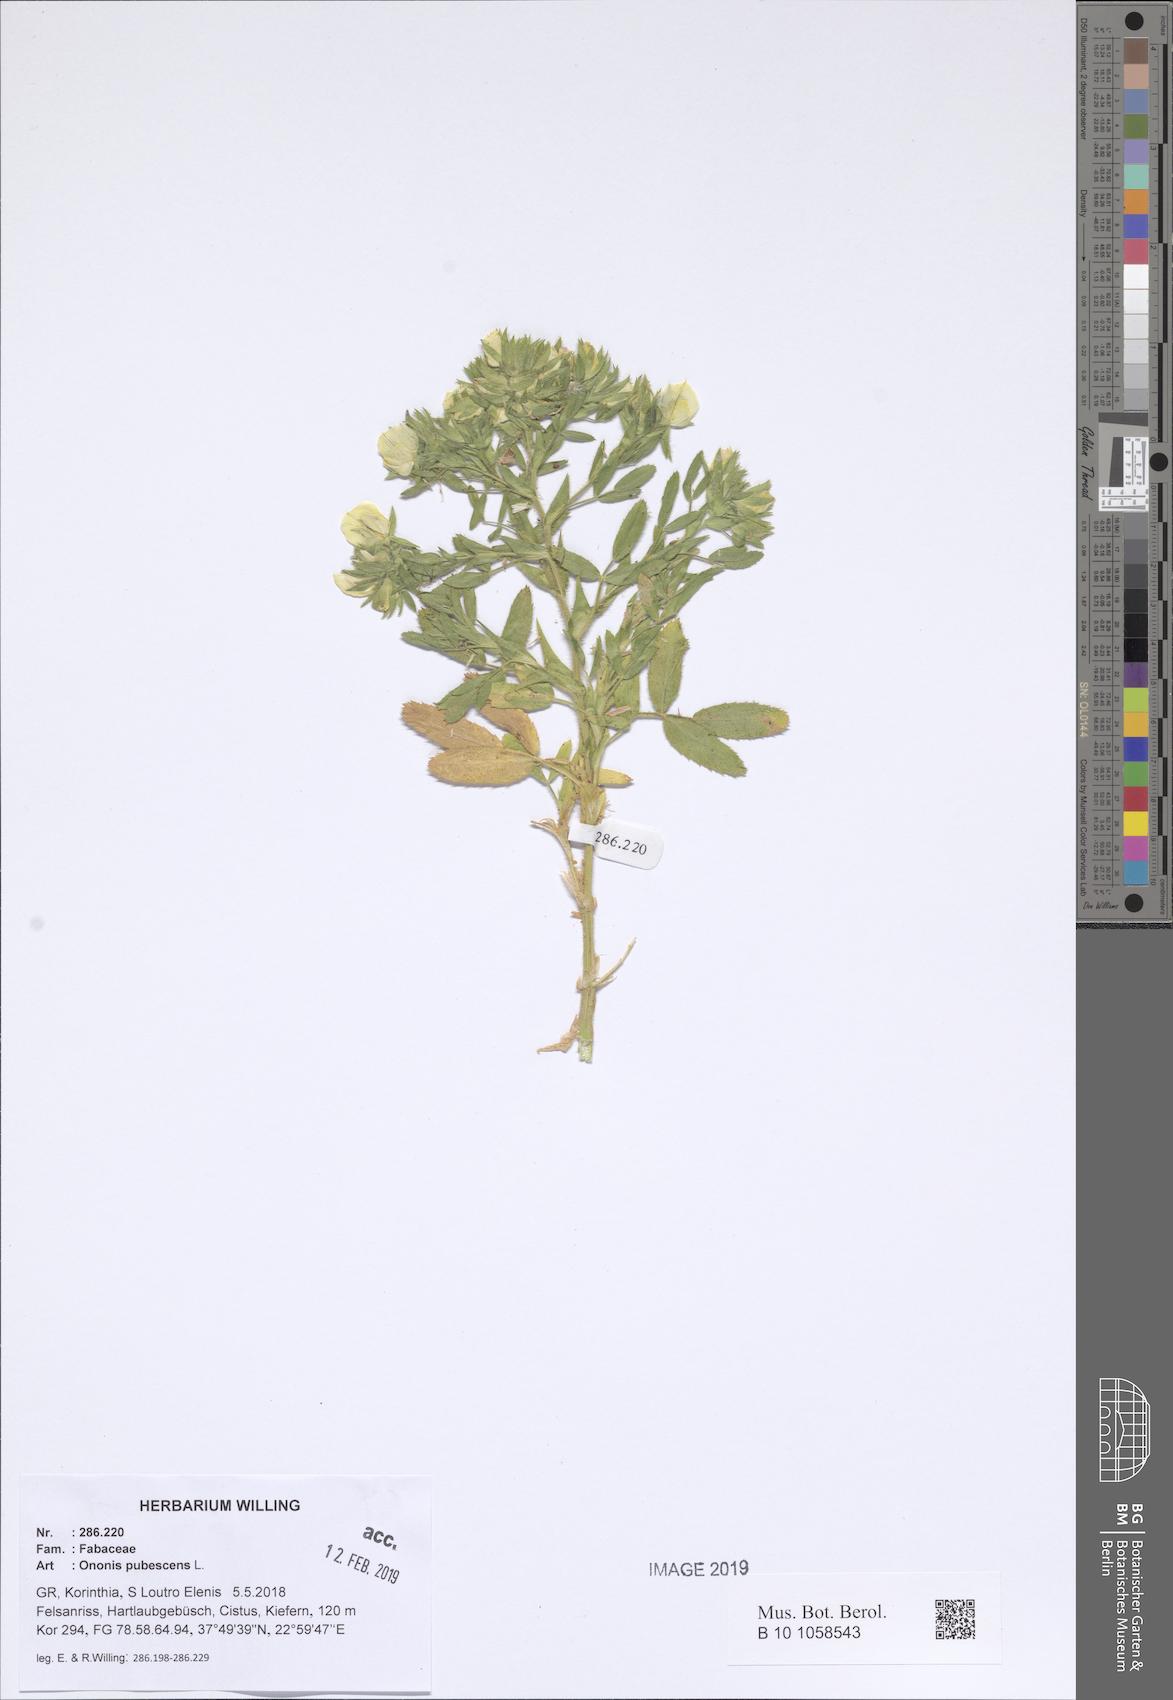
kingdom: Plantae
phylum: Tracheophyta
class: Magnoliopsida
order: Fabales
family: Fabaceae
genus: Ononis
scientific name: Ononis pubescens
